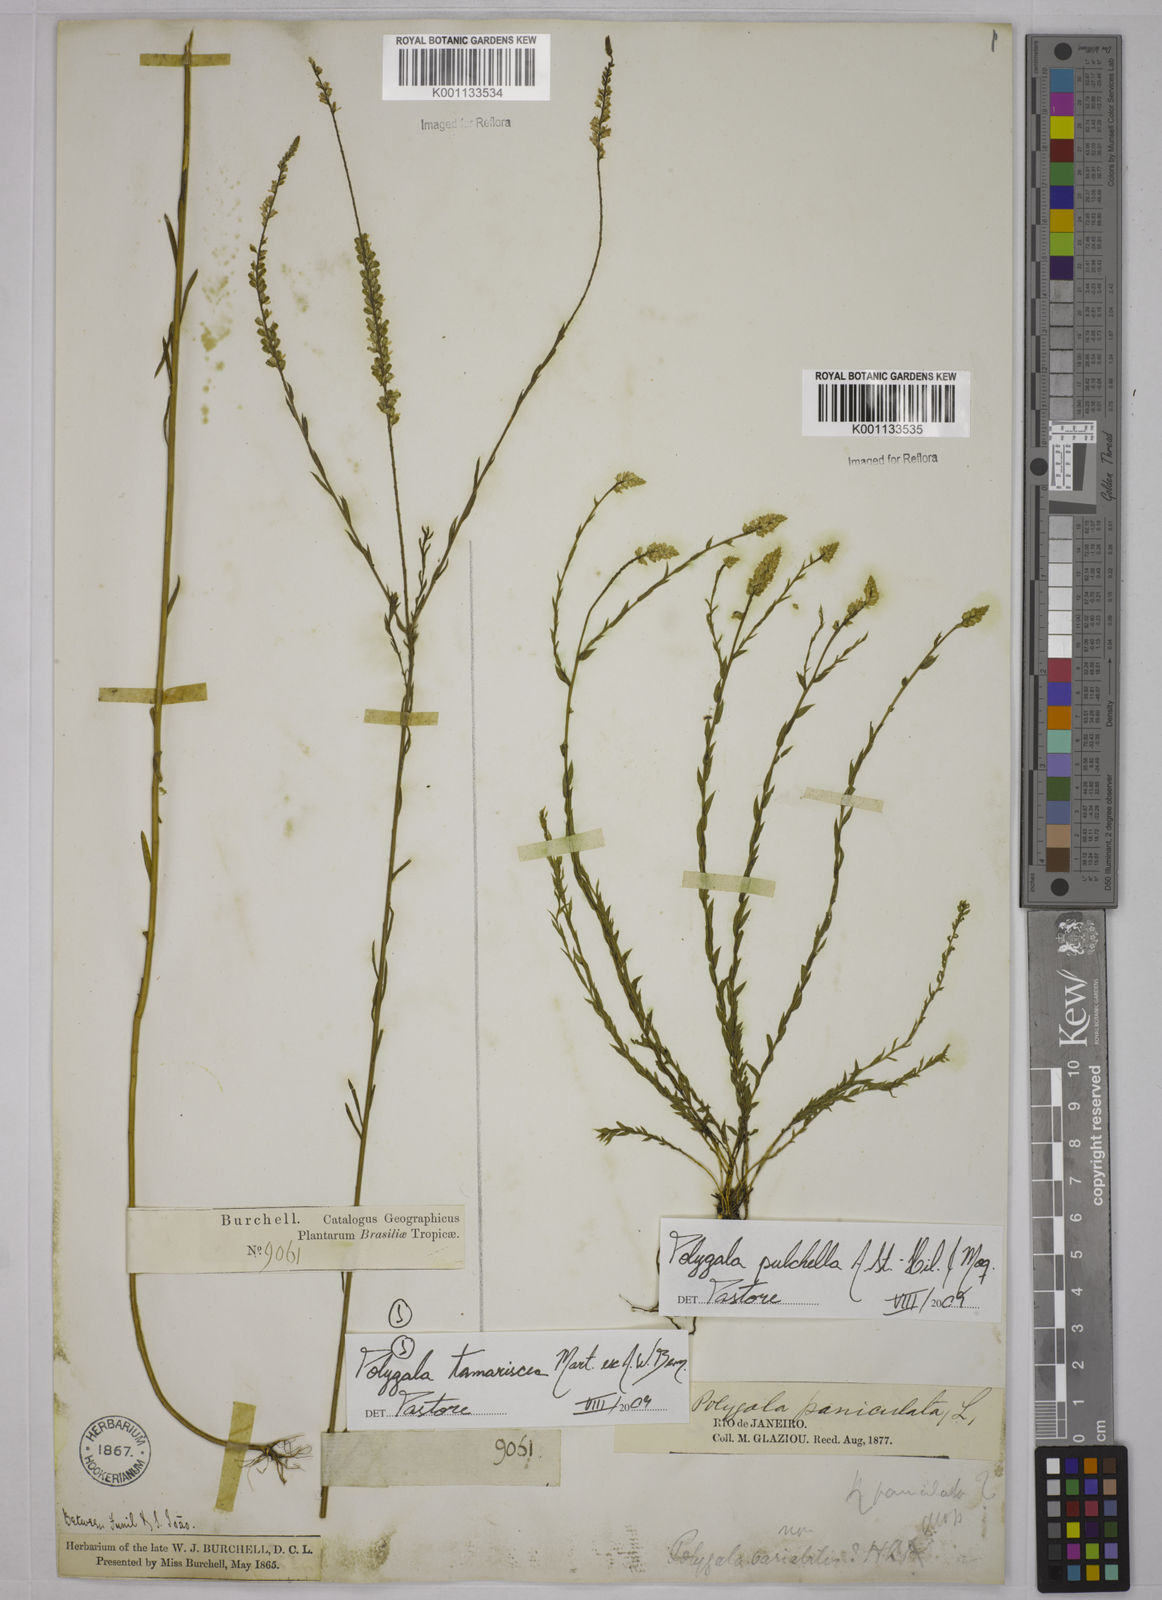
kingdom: Plantae
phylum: Tracheophyta
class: Magnoliopsida
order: Fabales
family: Polygalaceae
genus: Polygala
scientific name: Polygala tamariscea
